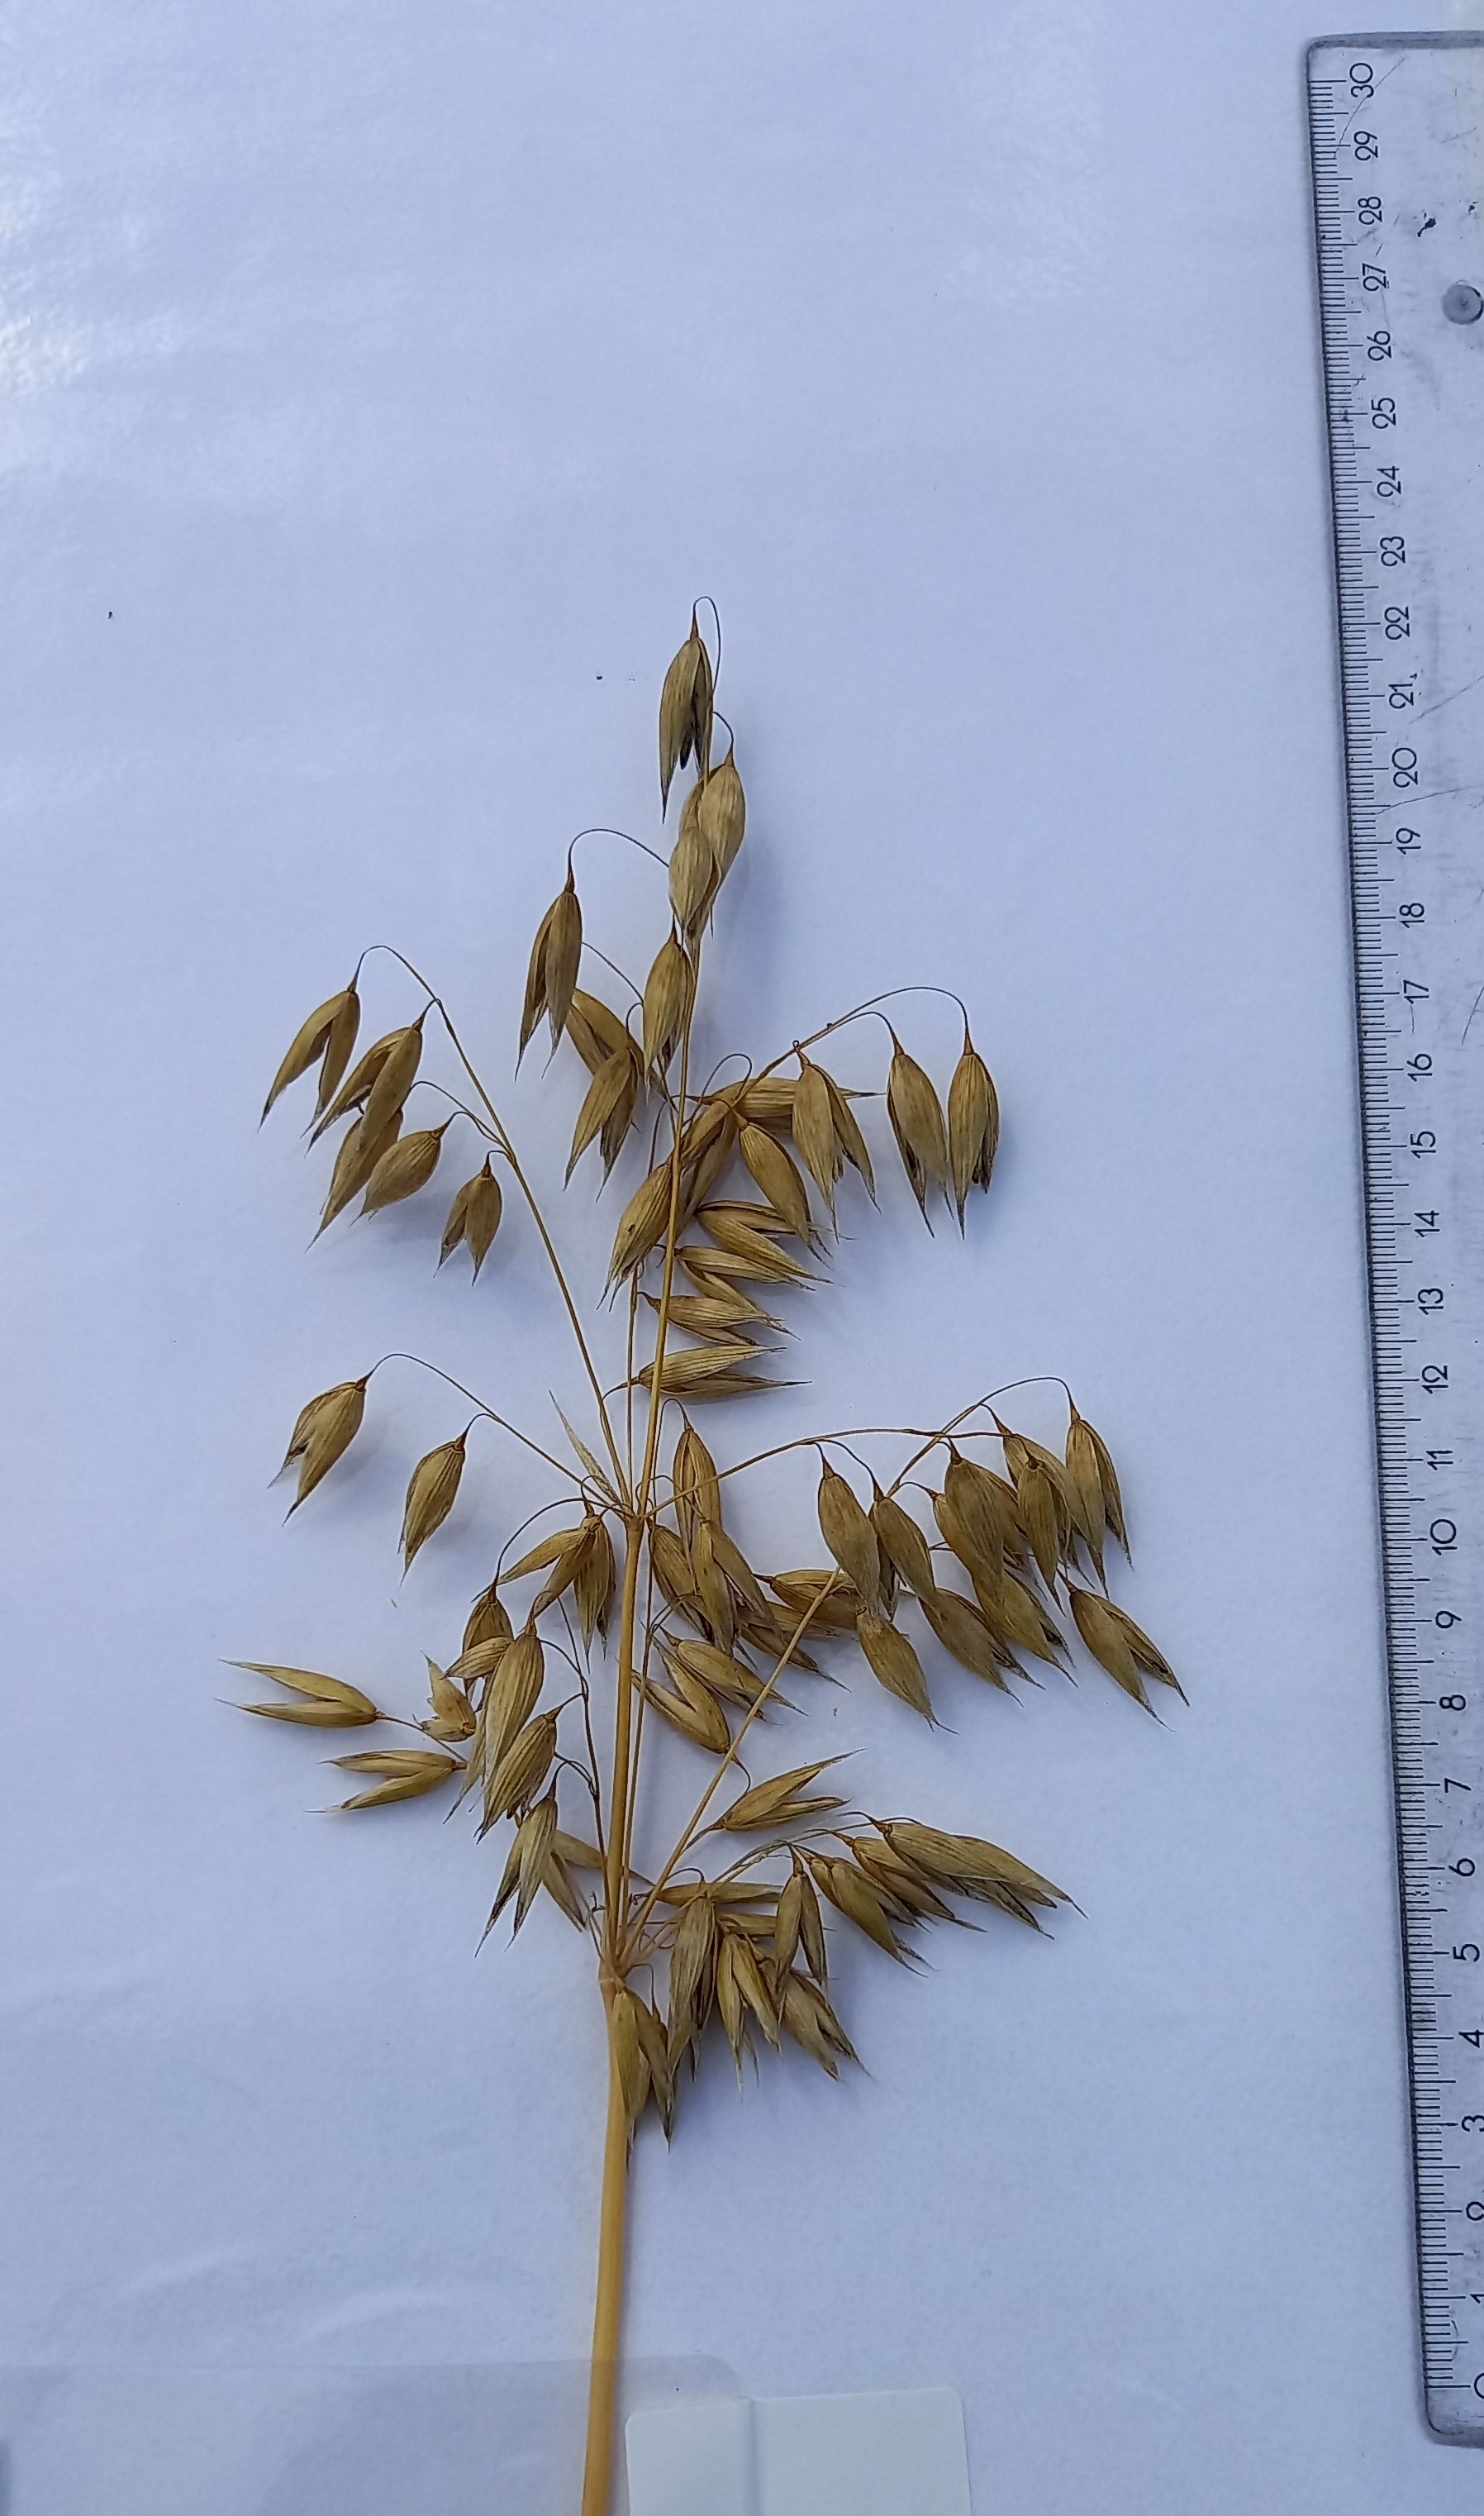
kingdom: Plantae
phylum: Tracheophyta
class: Liliopsida
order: Poales
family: Poaceae
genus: Avena
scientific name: Avena sativa
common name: Oat
